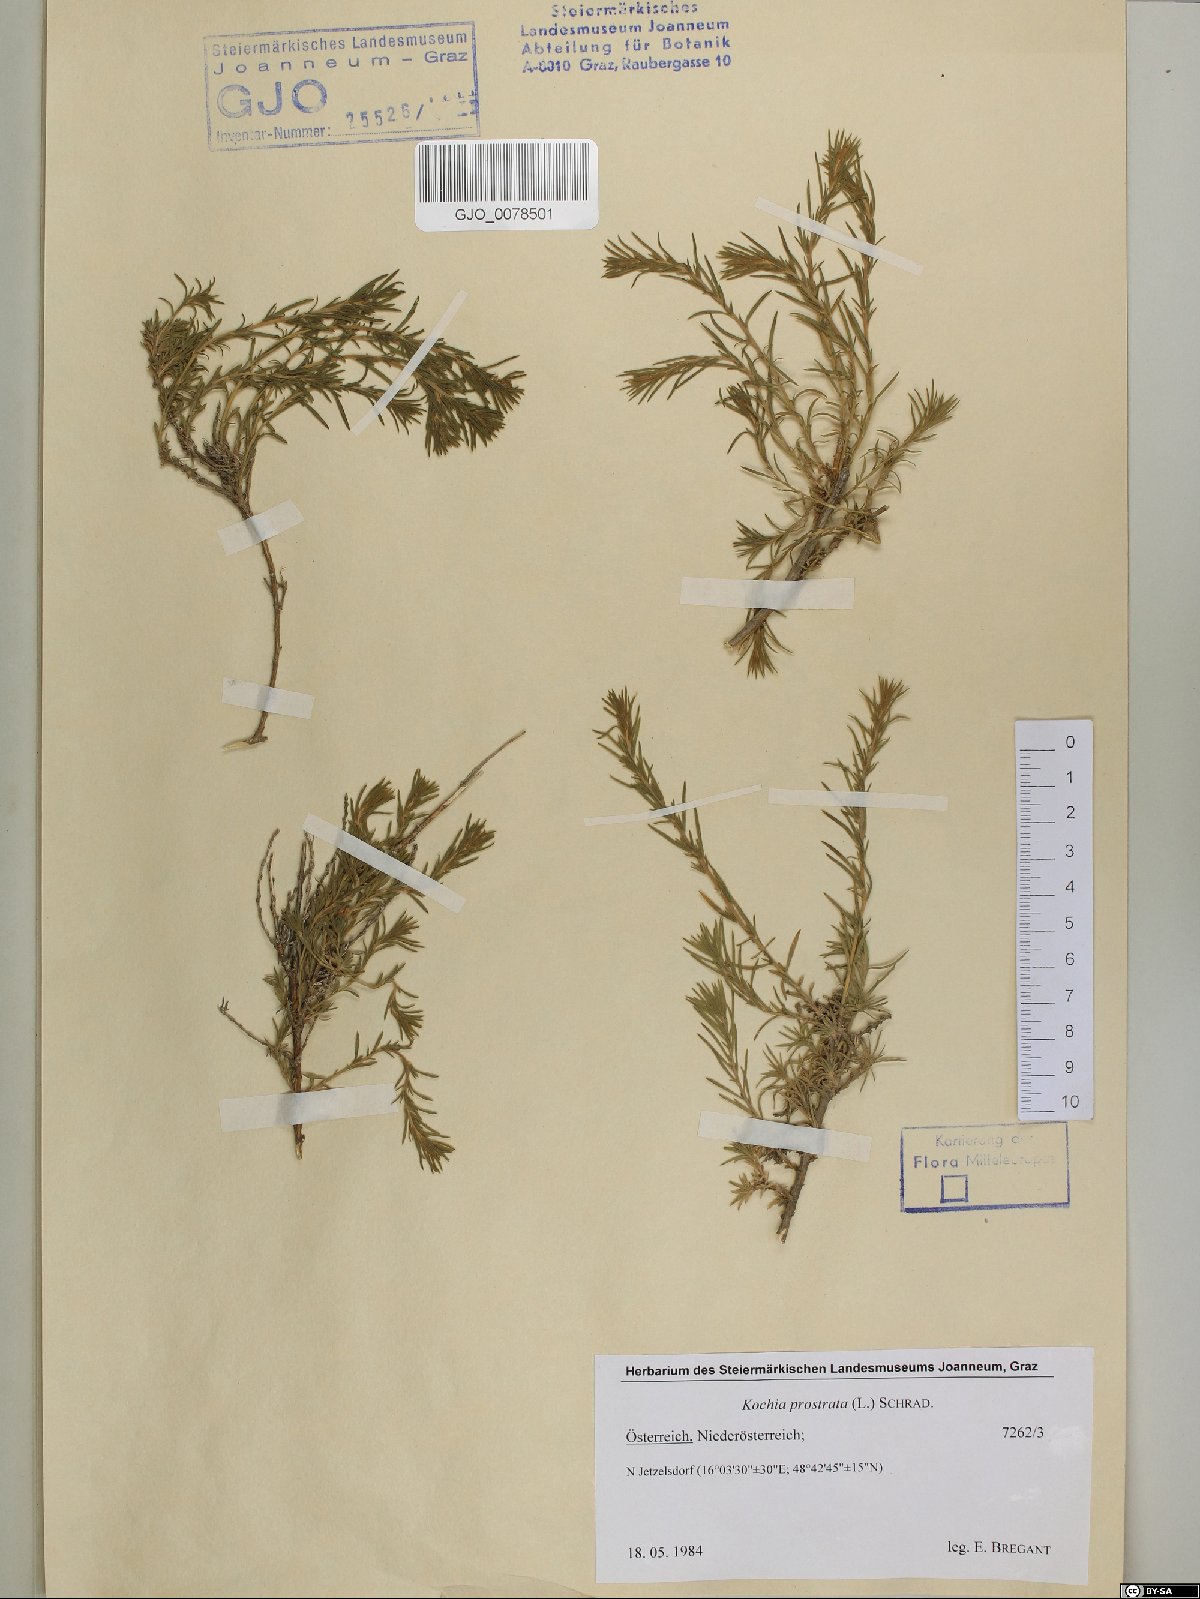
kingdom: Plantae
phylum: Tracheophyta
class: Magnoliopsida
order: Caryophyllales
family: Amaranthaceae
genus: Bassia
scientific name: Bassia prostrata
